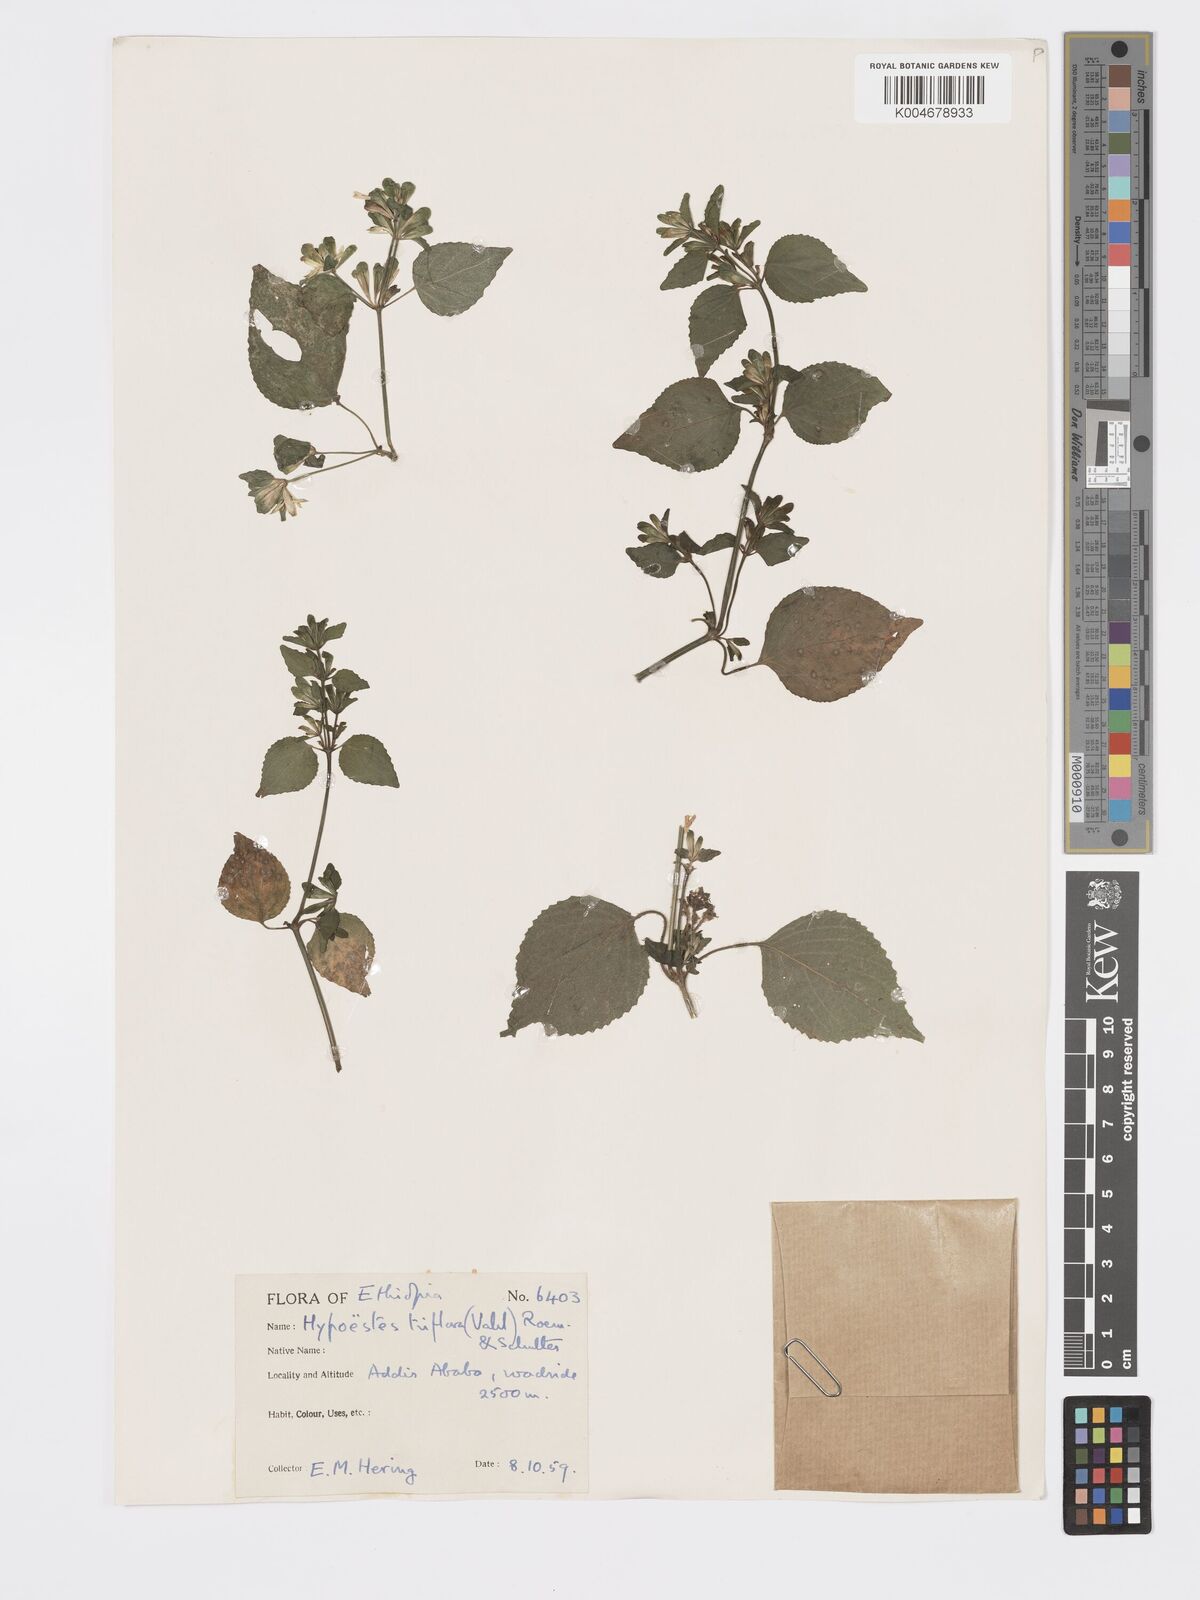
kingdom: Plantae
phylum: Tracheophyta
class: Magnoliopsida
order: Lamiales
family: Acanthaceae
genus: Hypoestes
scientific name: Hypoestes triflora
